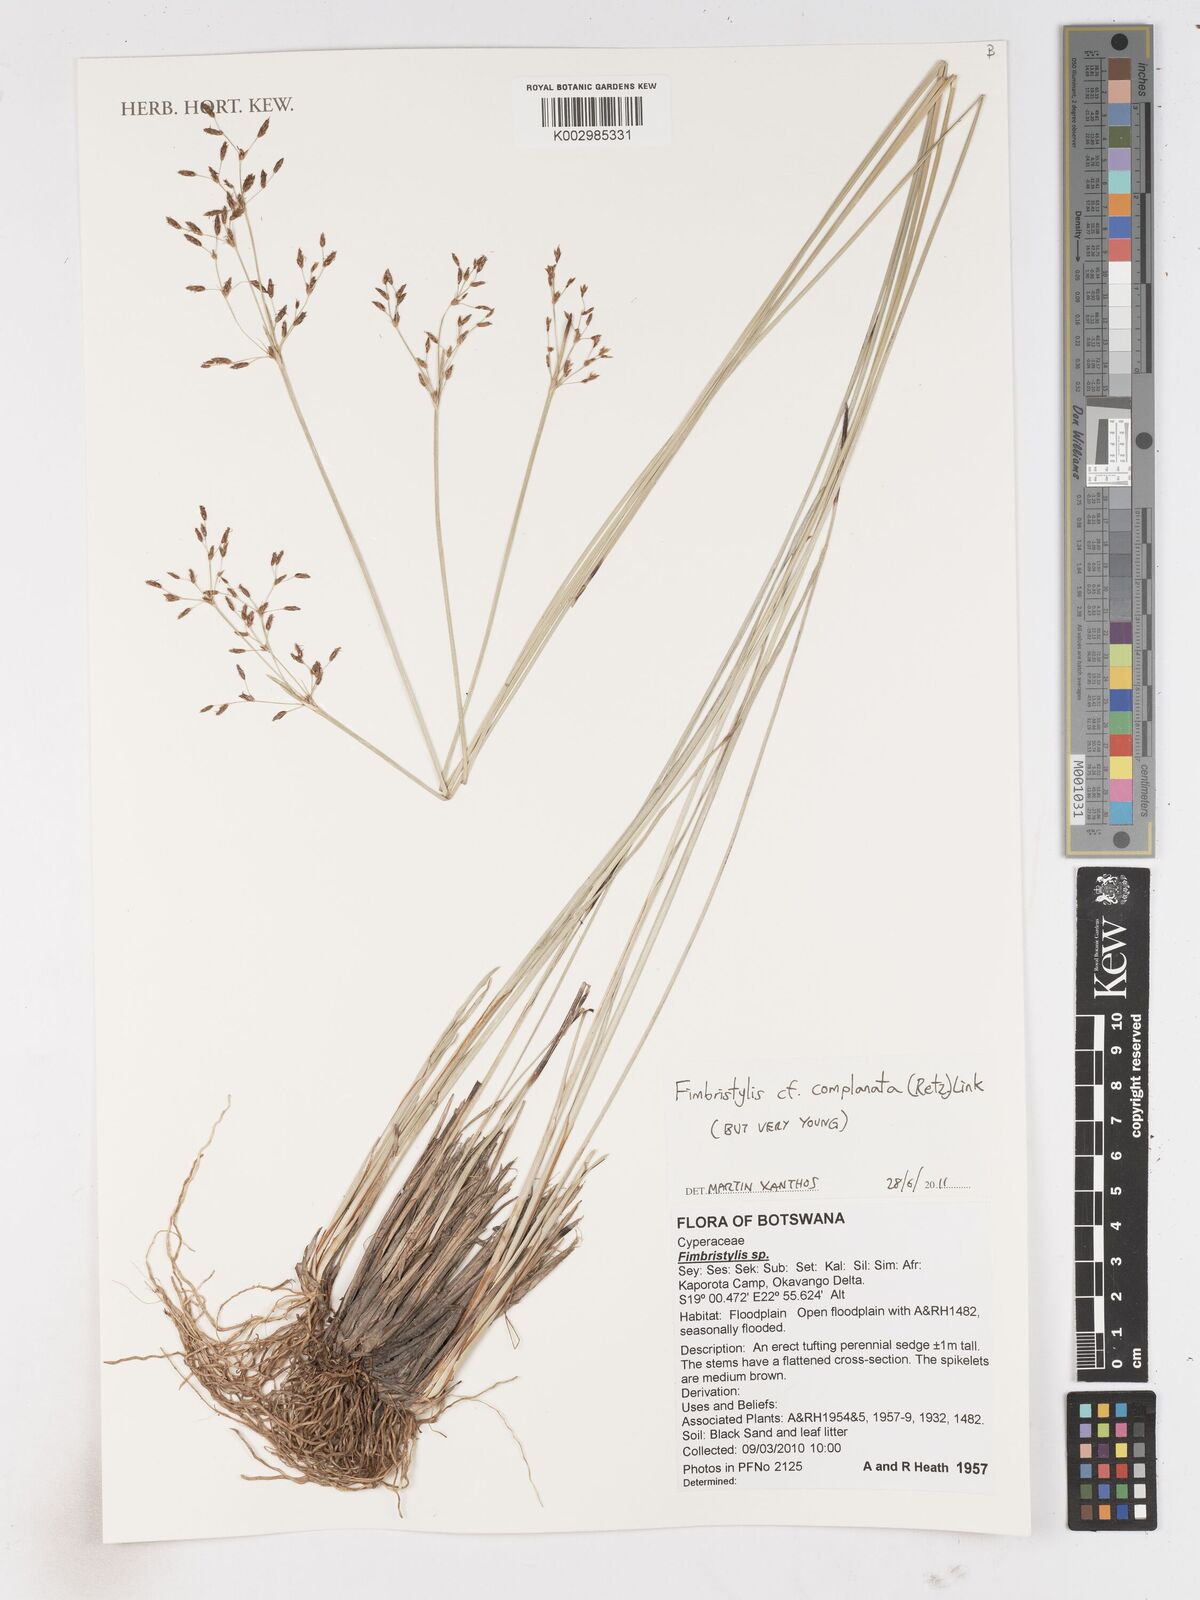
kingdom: Plantae
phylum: Tracheophyta
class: Liliopsida
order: Poales
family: Cyperaceae
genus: Fimbristylis
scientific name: Fimbristylis complanata
